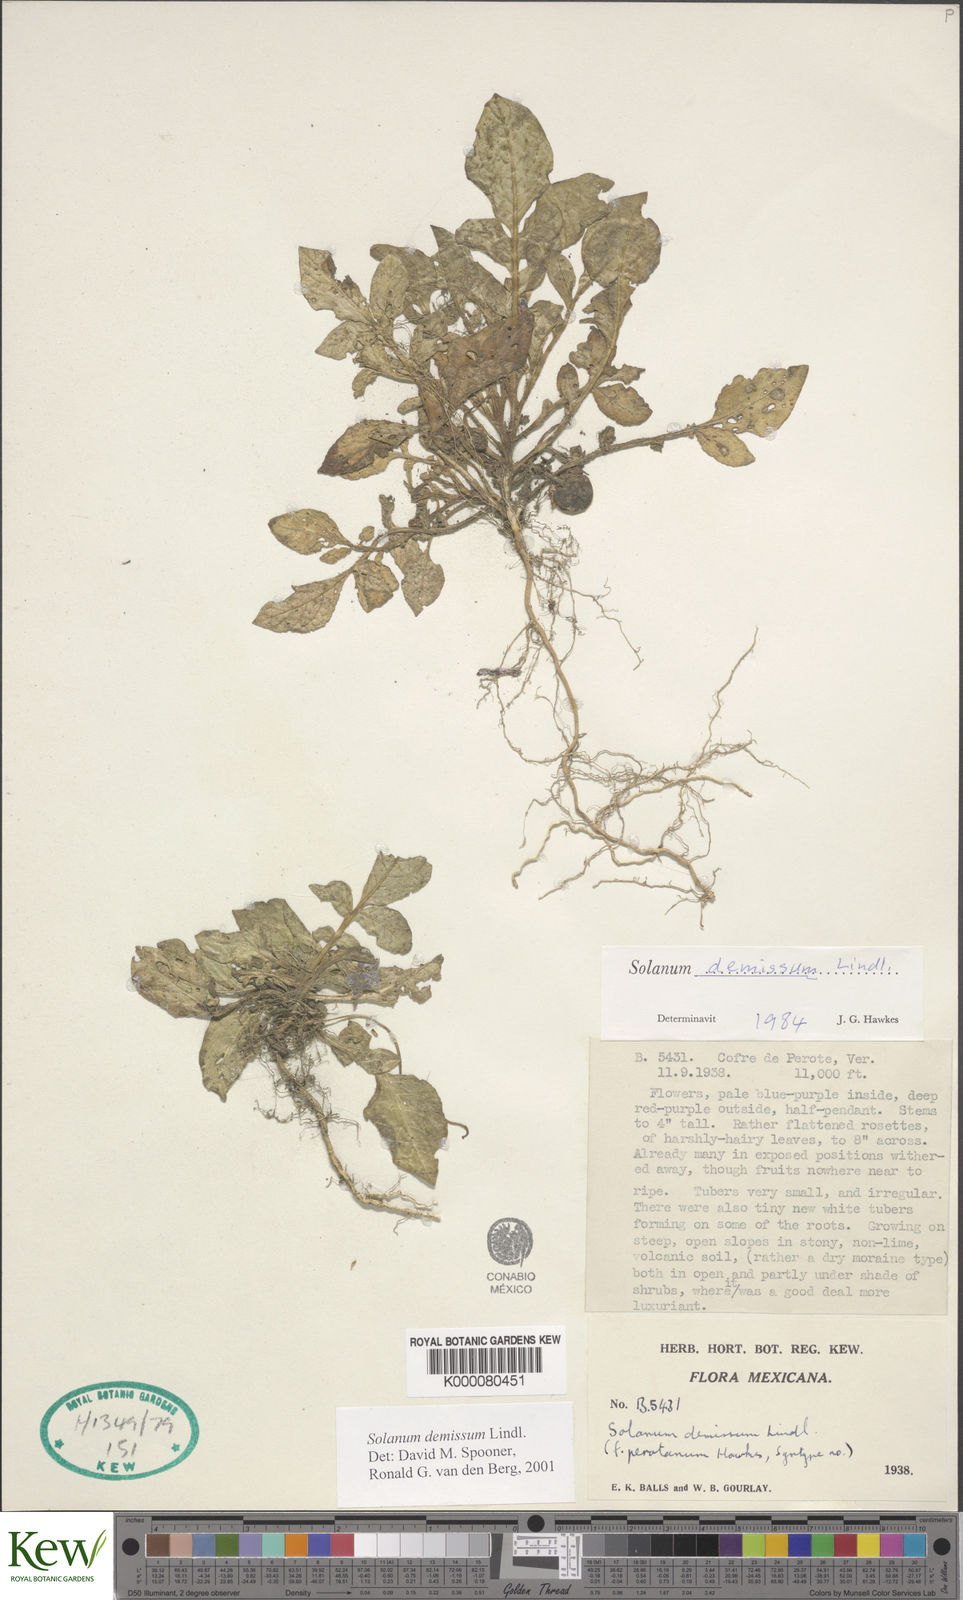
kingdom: Plantae
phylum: Tracheophyta
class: Magnoliopsida
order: Solanales
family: Solanaceae
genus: Solanum
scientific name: Solanum demissum
